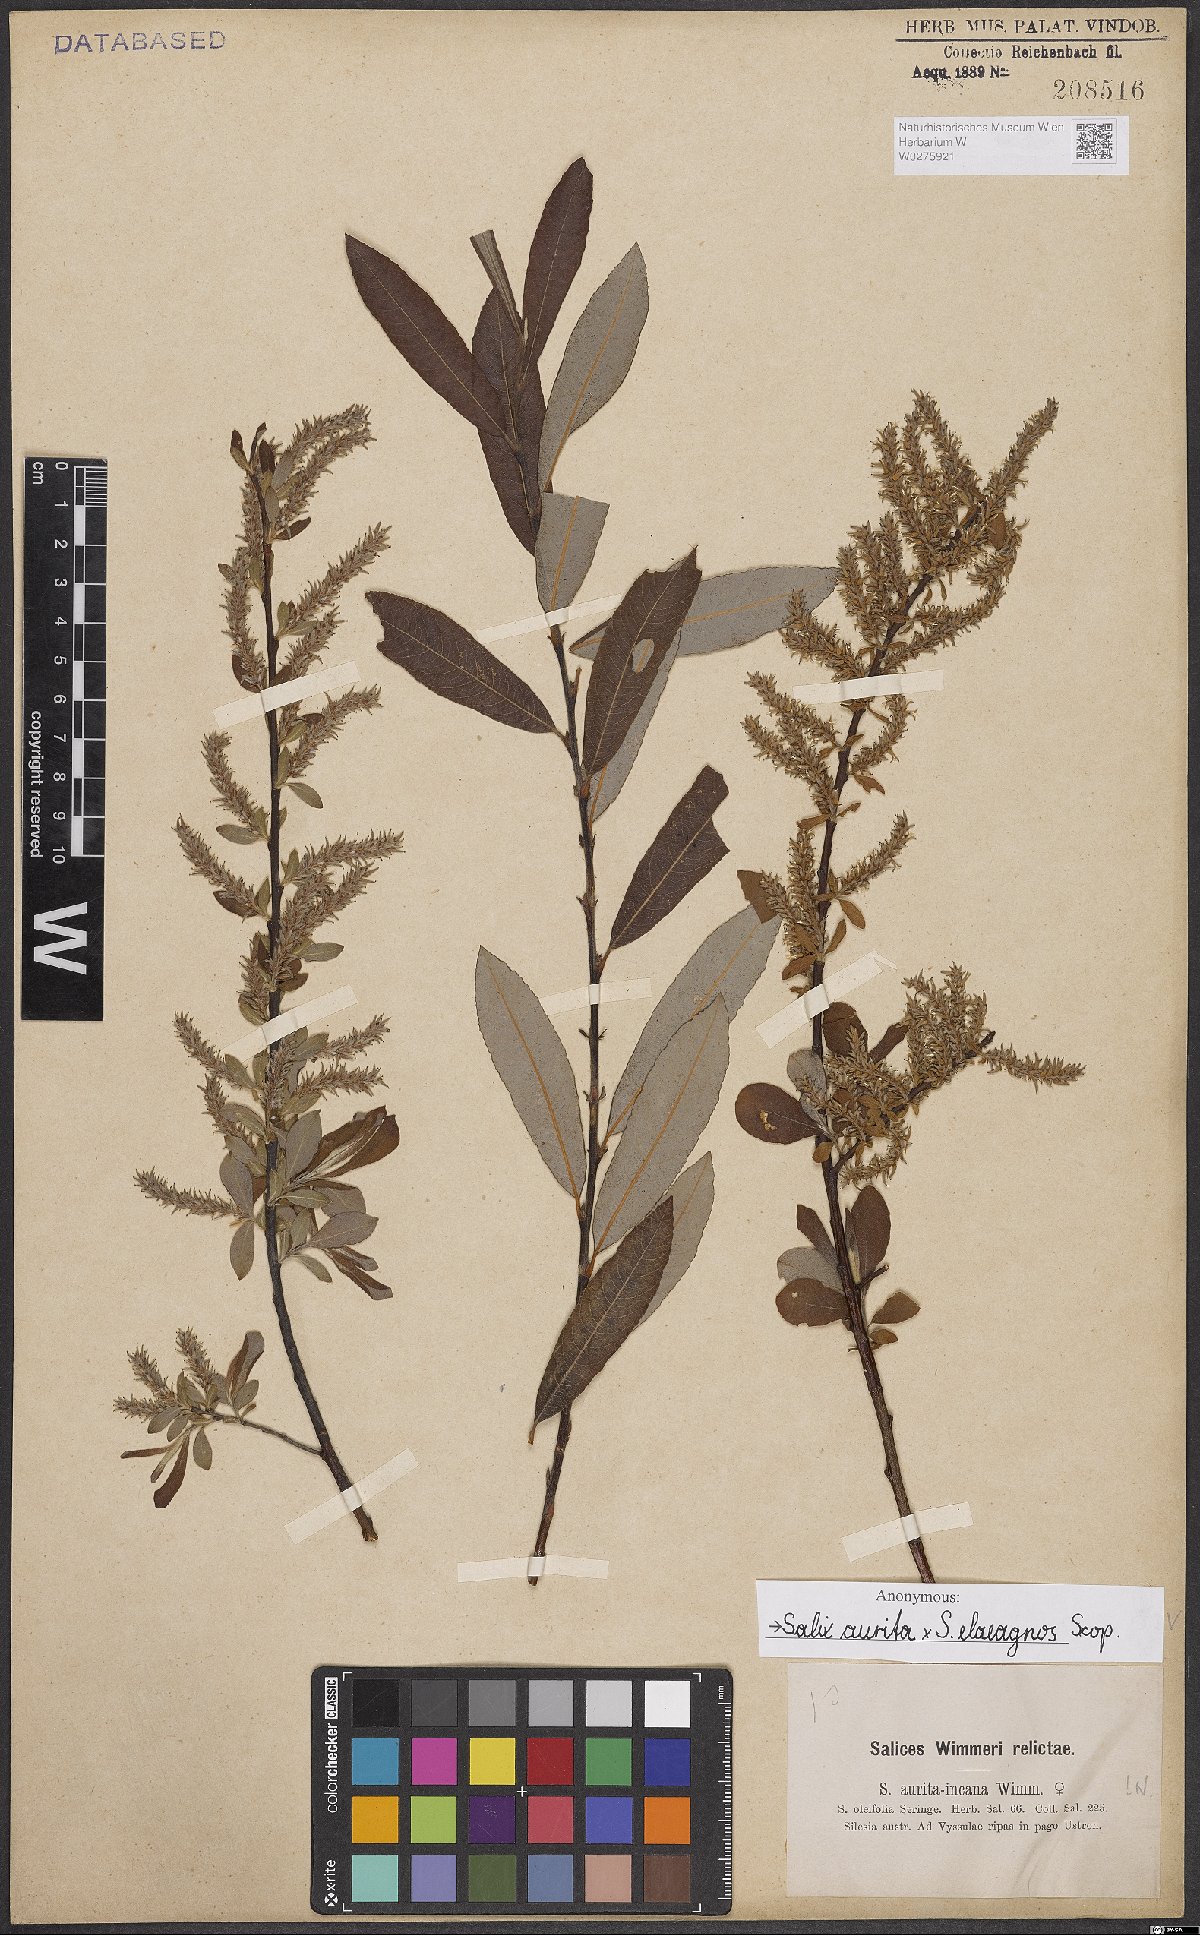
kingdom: Plantae
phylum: Tracheophyta
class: Magnoliopsida
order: Malpighiales
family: Salicaceae
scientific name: Salicaceae
